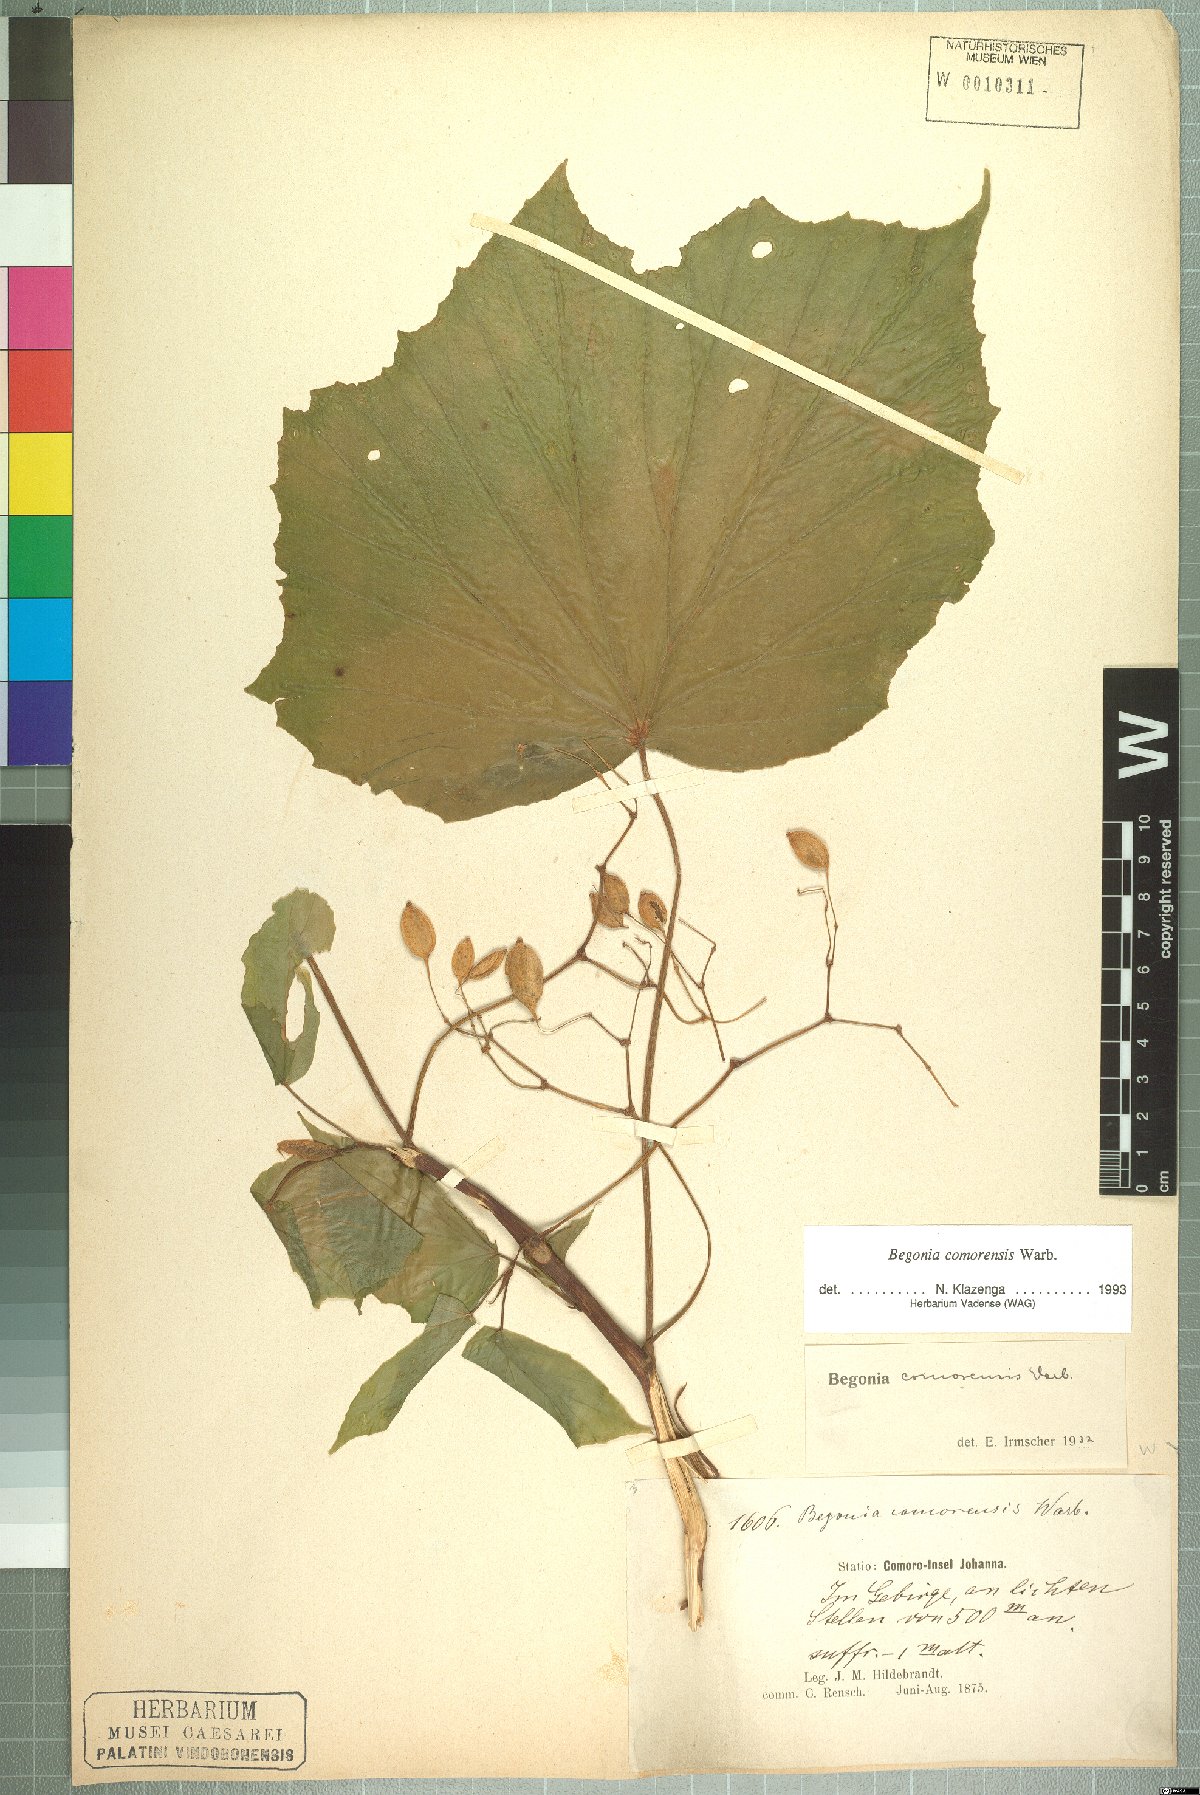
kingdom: Plantae
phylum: Tracheophyta
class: Magnoliopsida
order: Cucurbitales
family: Begoniaceae
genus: Begonia
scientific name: Begonia comorensis
